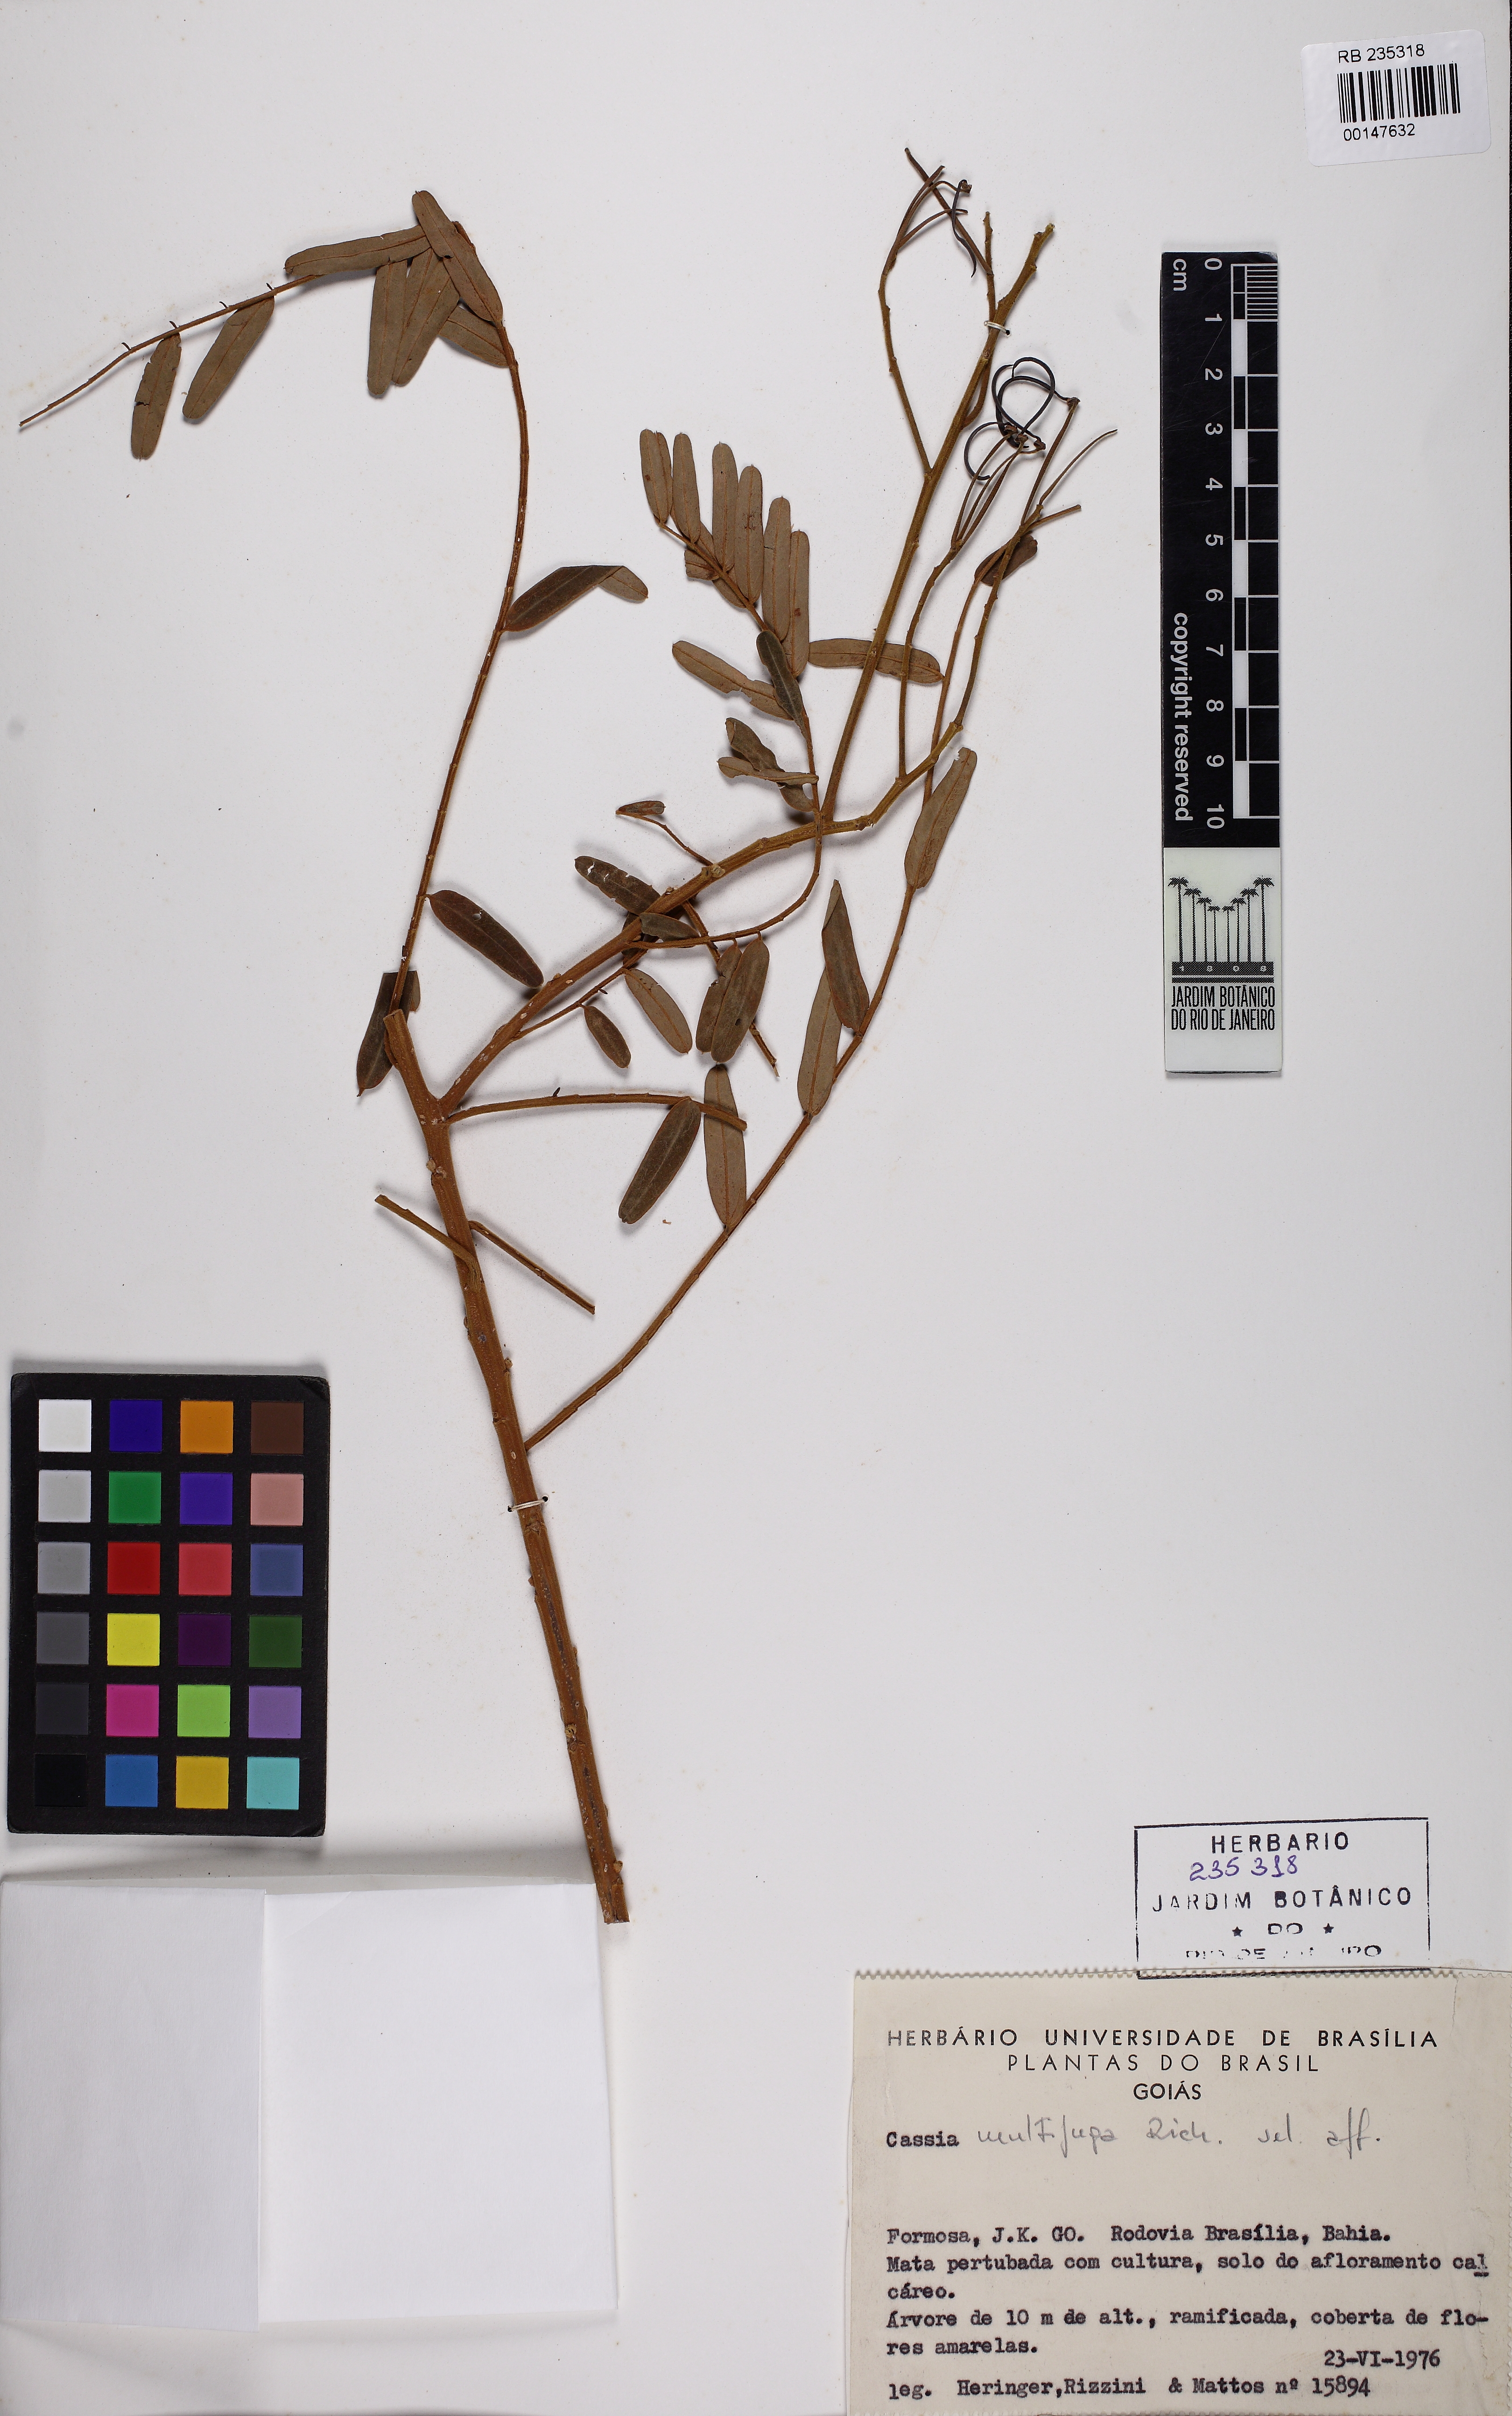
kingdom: Plantae
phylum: Tracheophyta
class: Magnoliopsida
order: Fabales
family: Fabaceae
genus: Senna
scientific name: Senna multijuga
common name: False sicklepod
